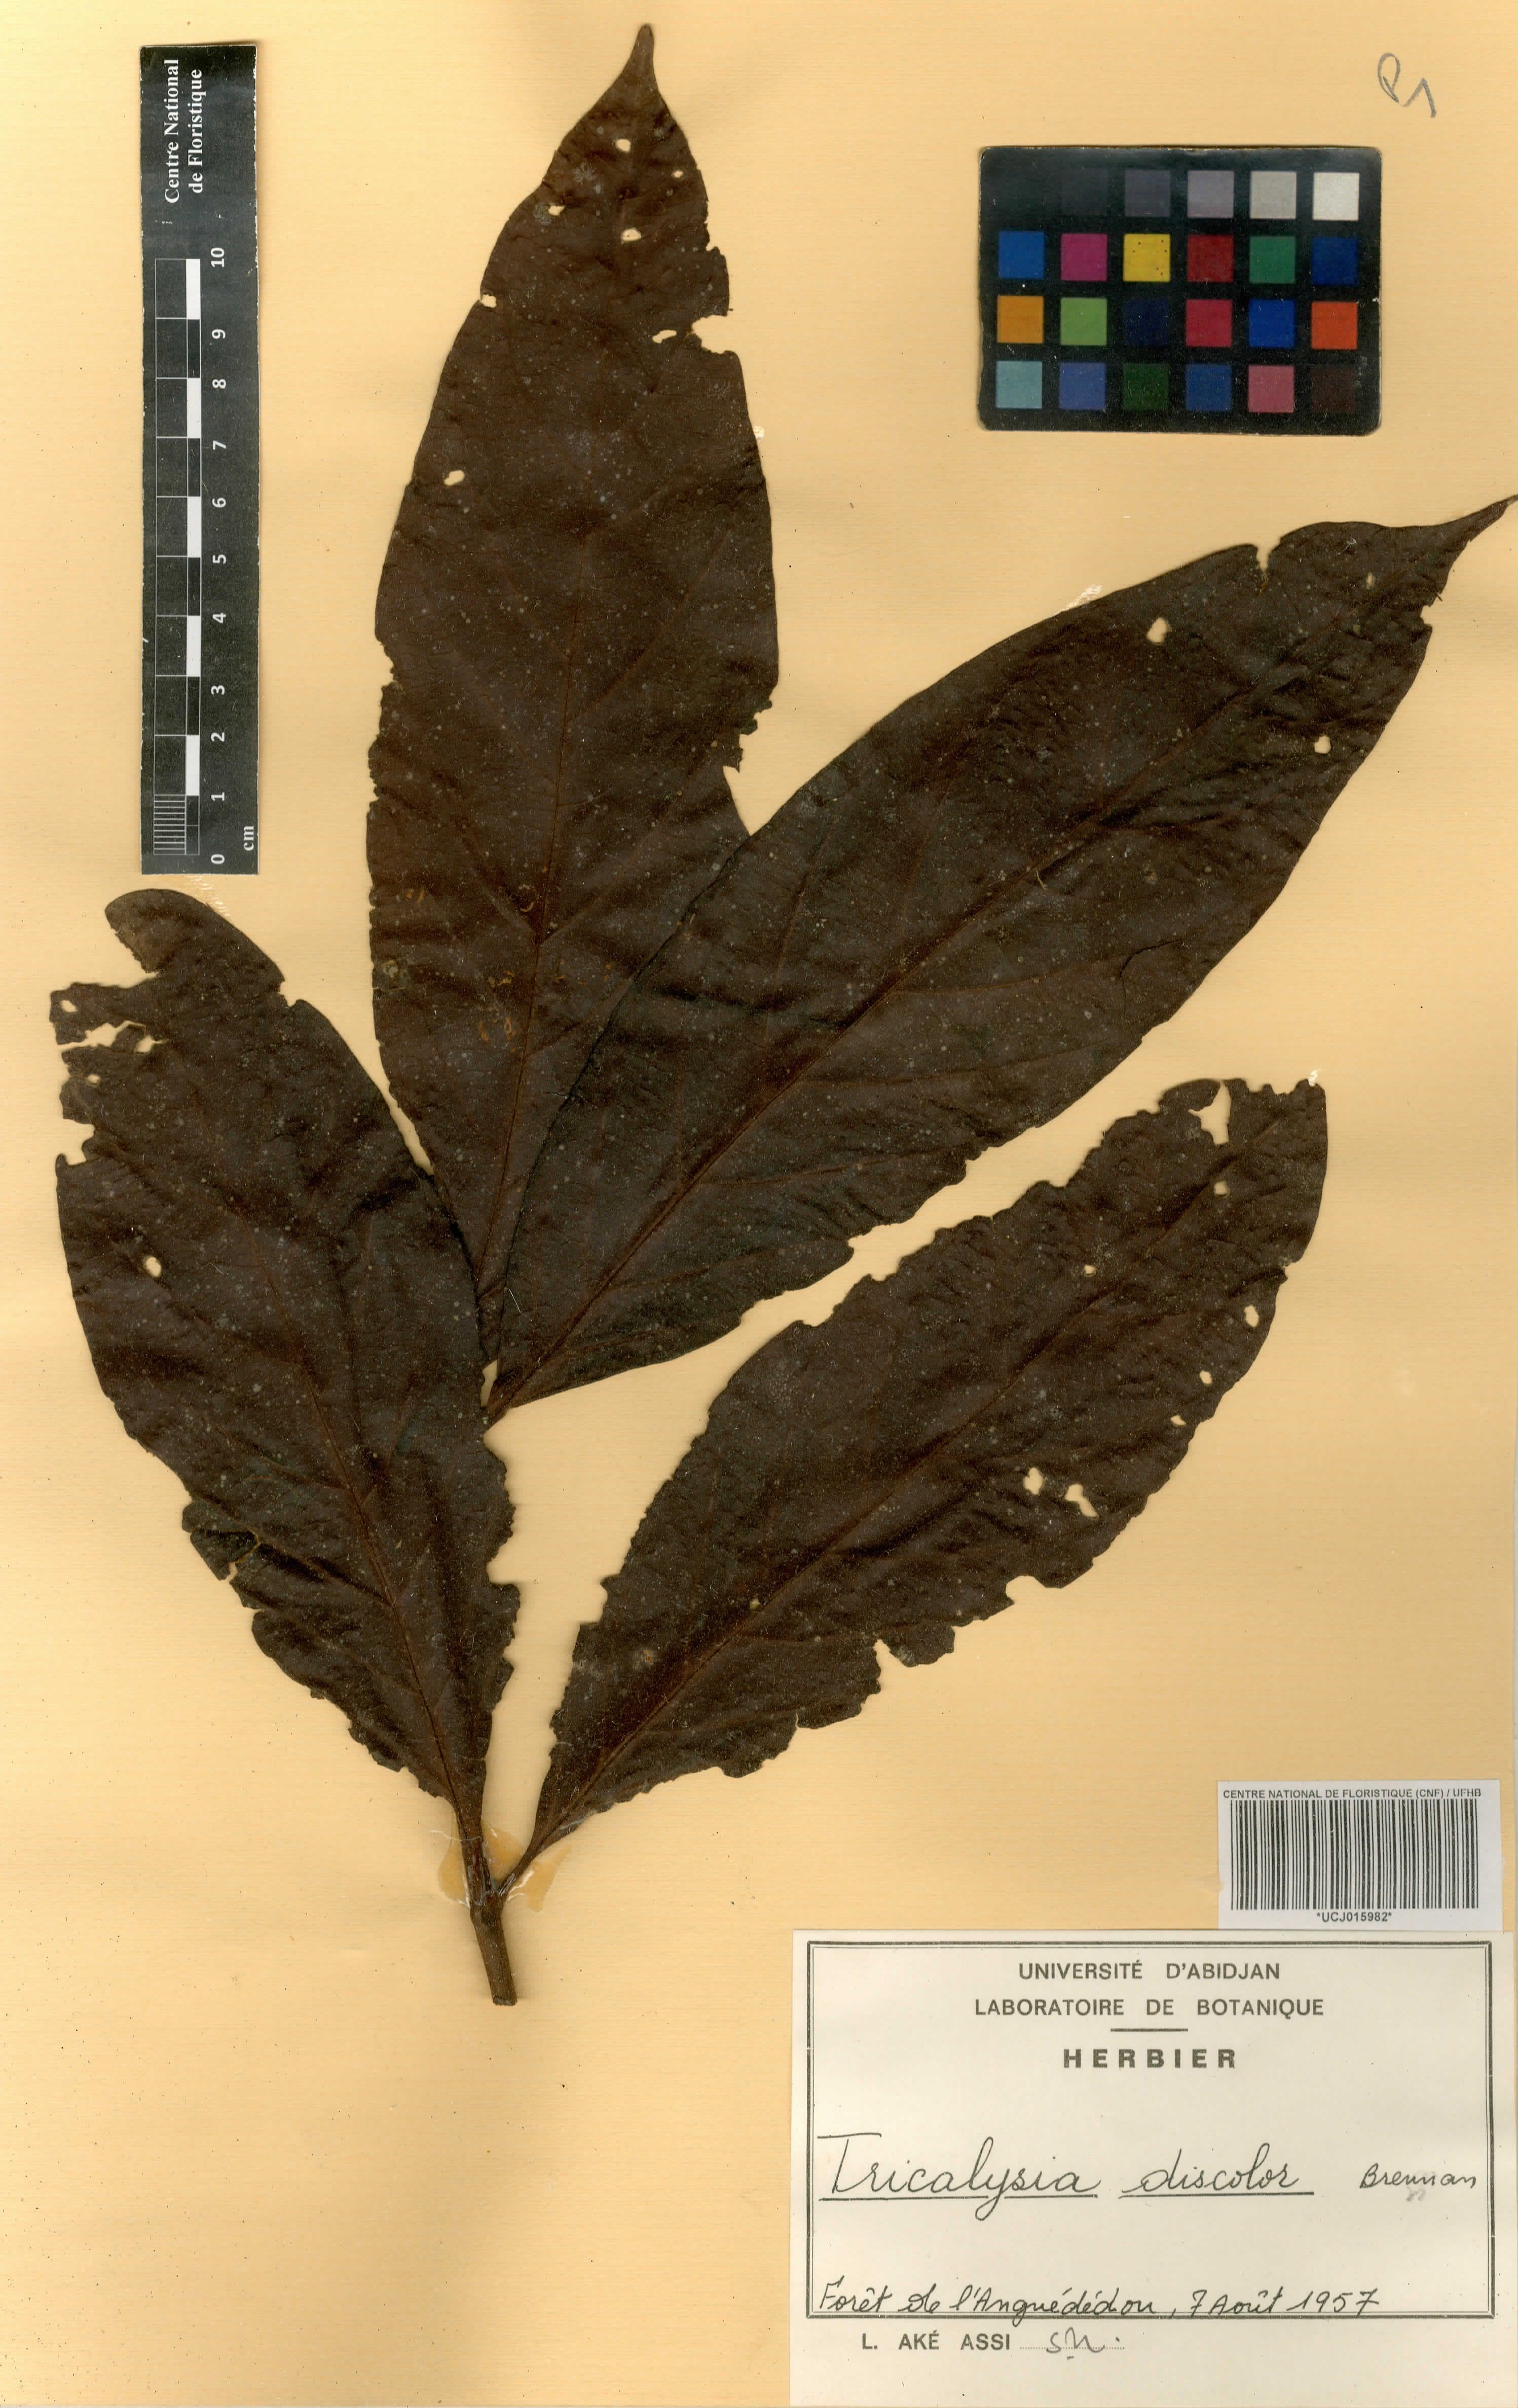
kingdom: Plantae
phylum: Tracheophyta
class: Magnoliopsida
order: Gentianales
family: Rubiaceae
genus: Empogona
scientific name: Empogona deightonii
